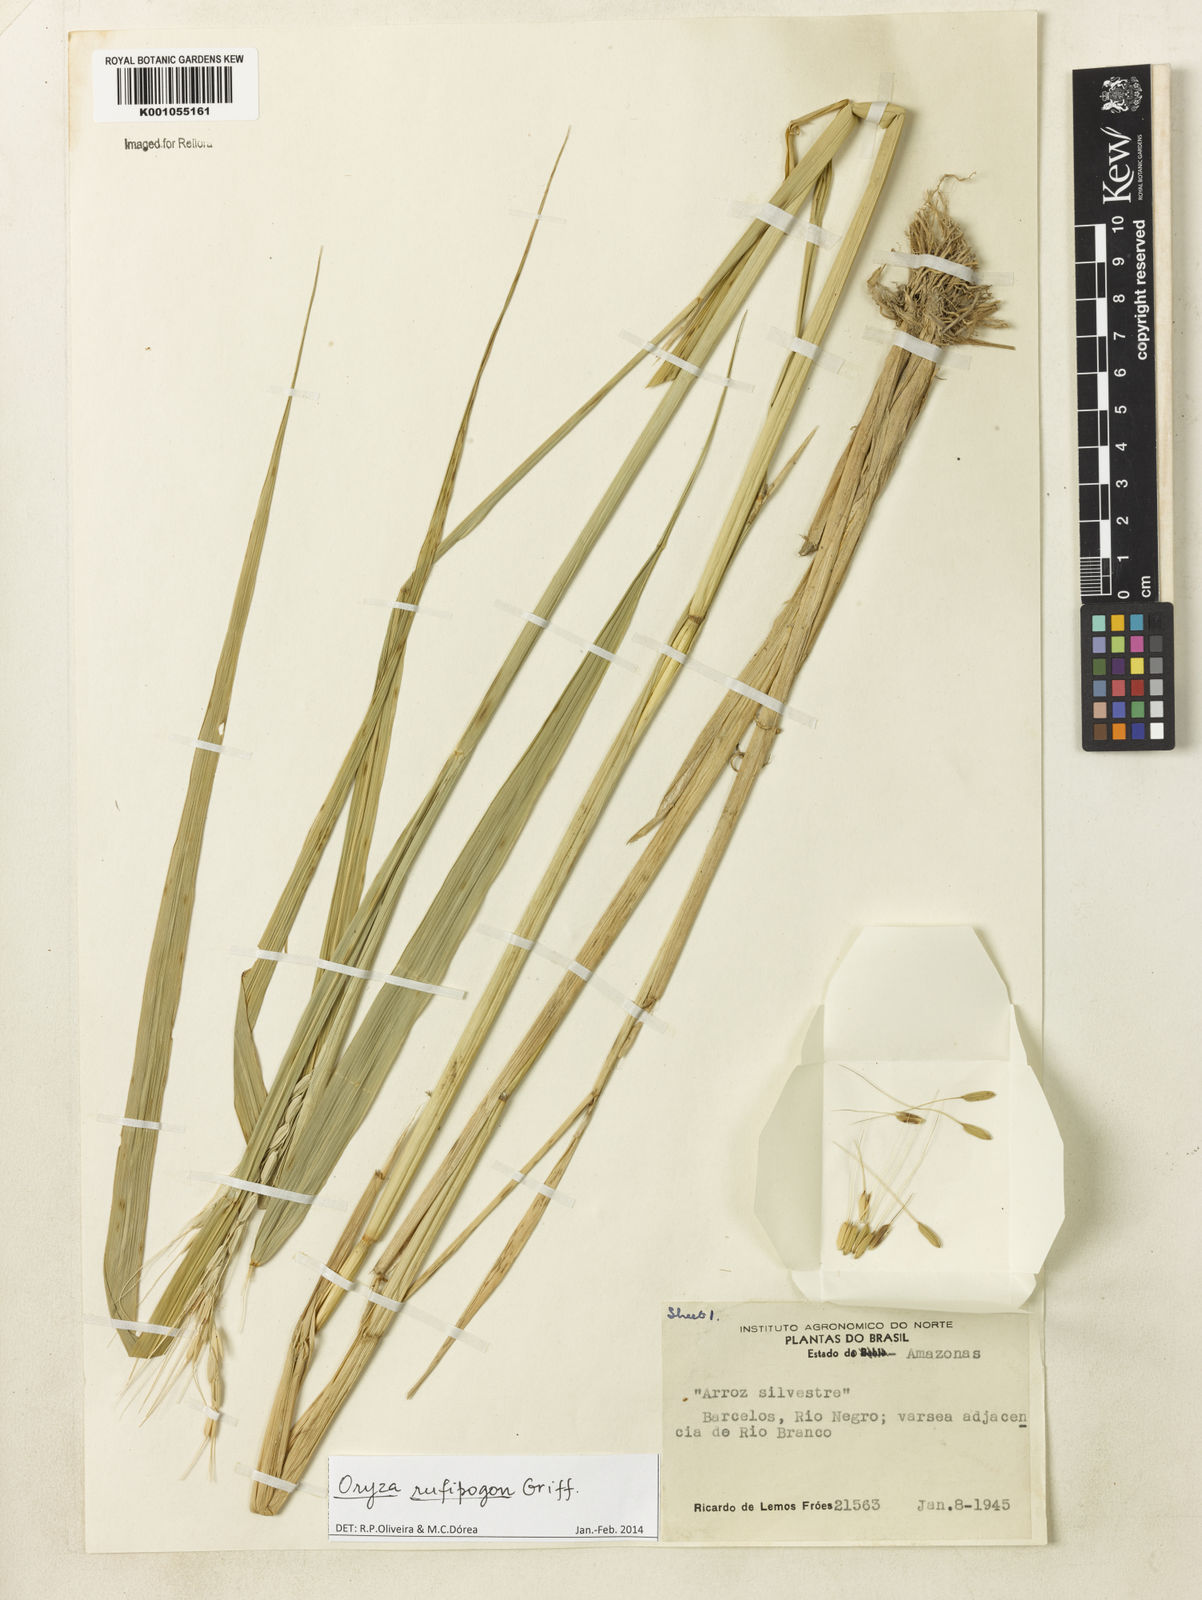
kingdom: Plantae
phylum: Tracheophyta
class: Liliopsida
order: Poales
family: Poaceae
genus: Oryza
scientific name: Oryza rufipogon
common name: Red rice
